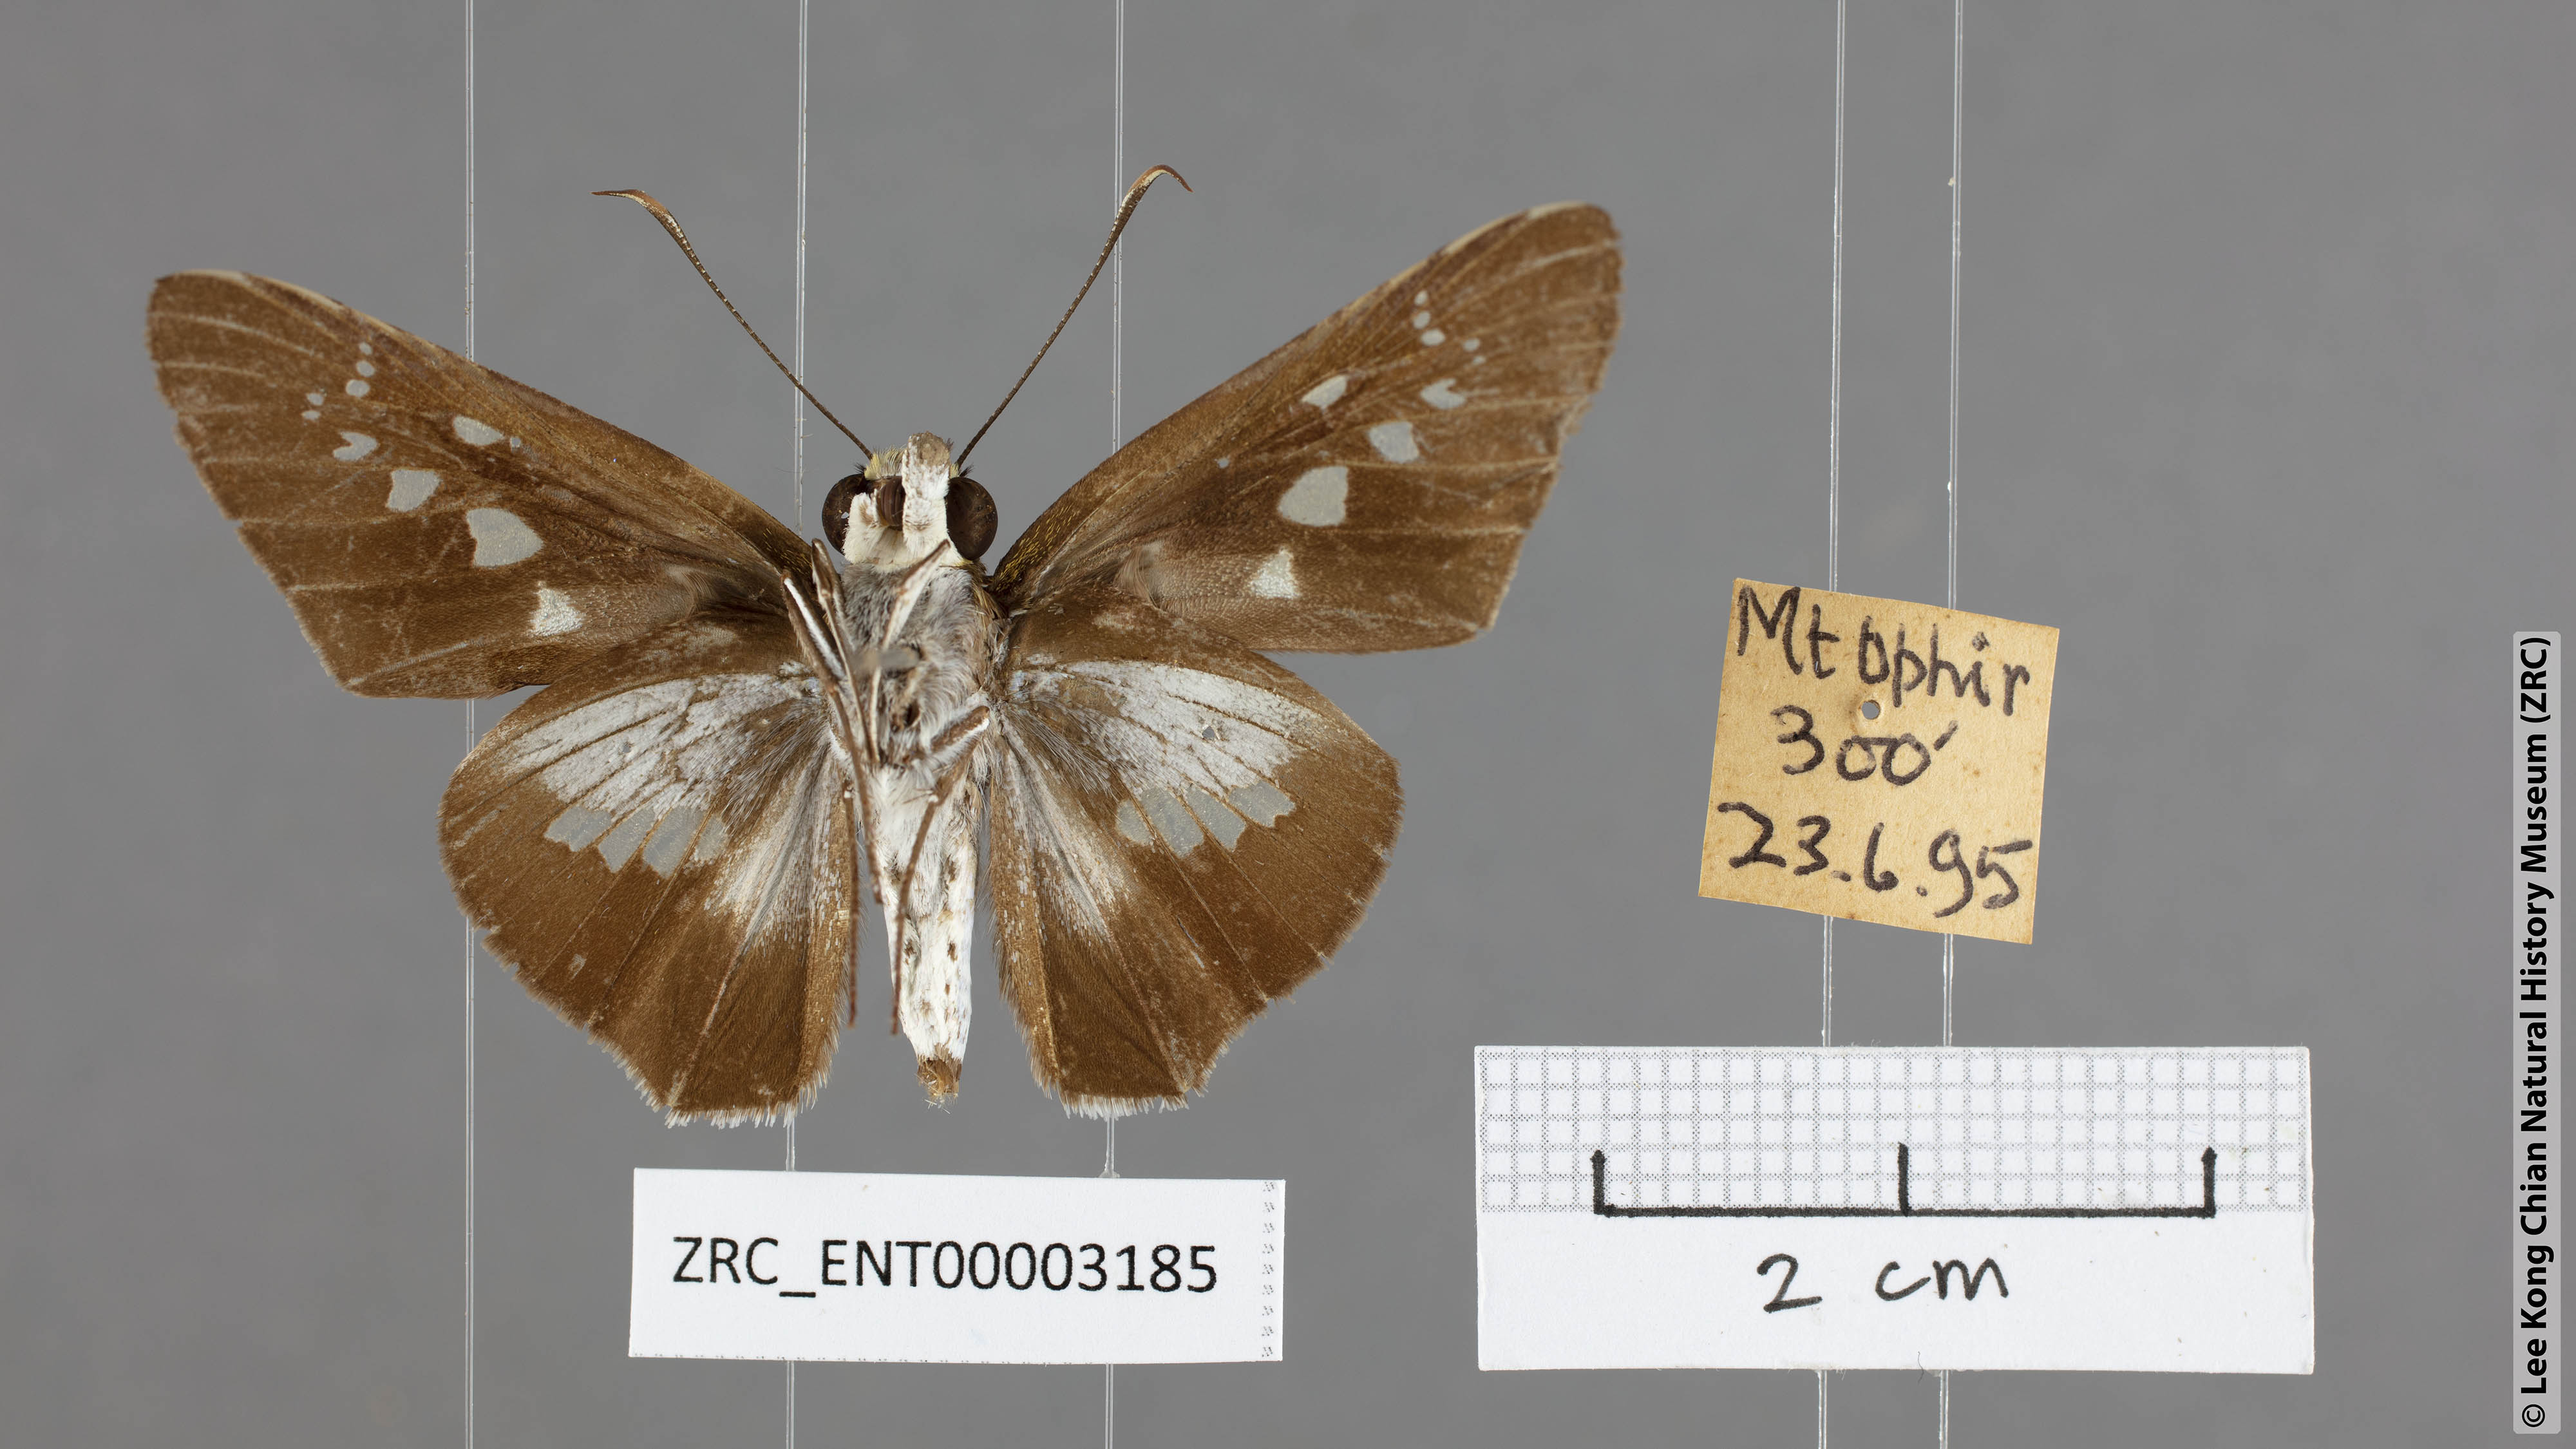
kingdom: Animalia
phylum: Arthropoda
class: Insecta
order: Lepidoptera
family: Hesperiidae
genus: Eetion
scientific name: Eetion elia
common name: White spotted palmer
